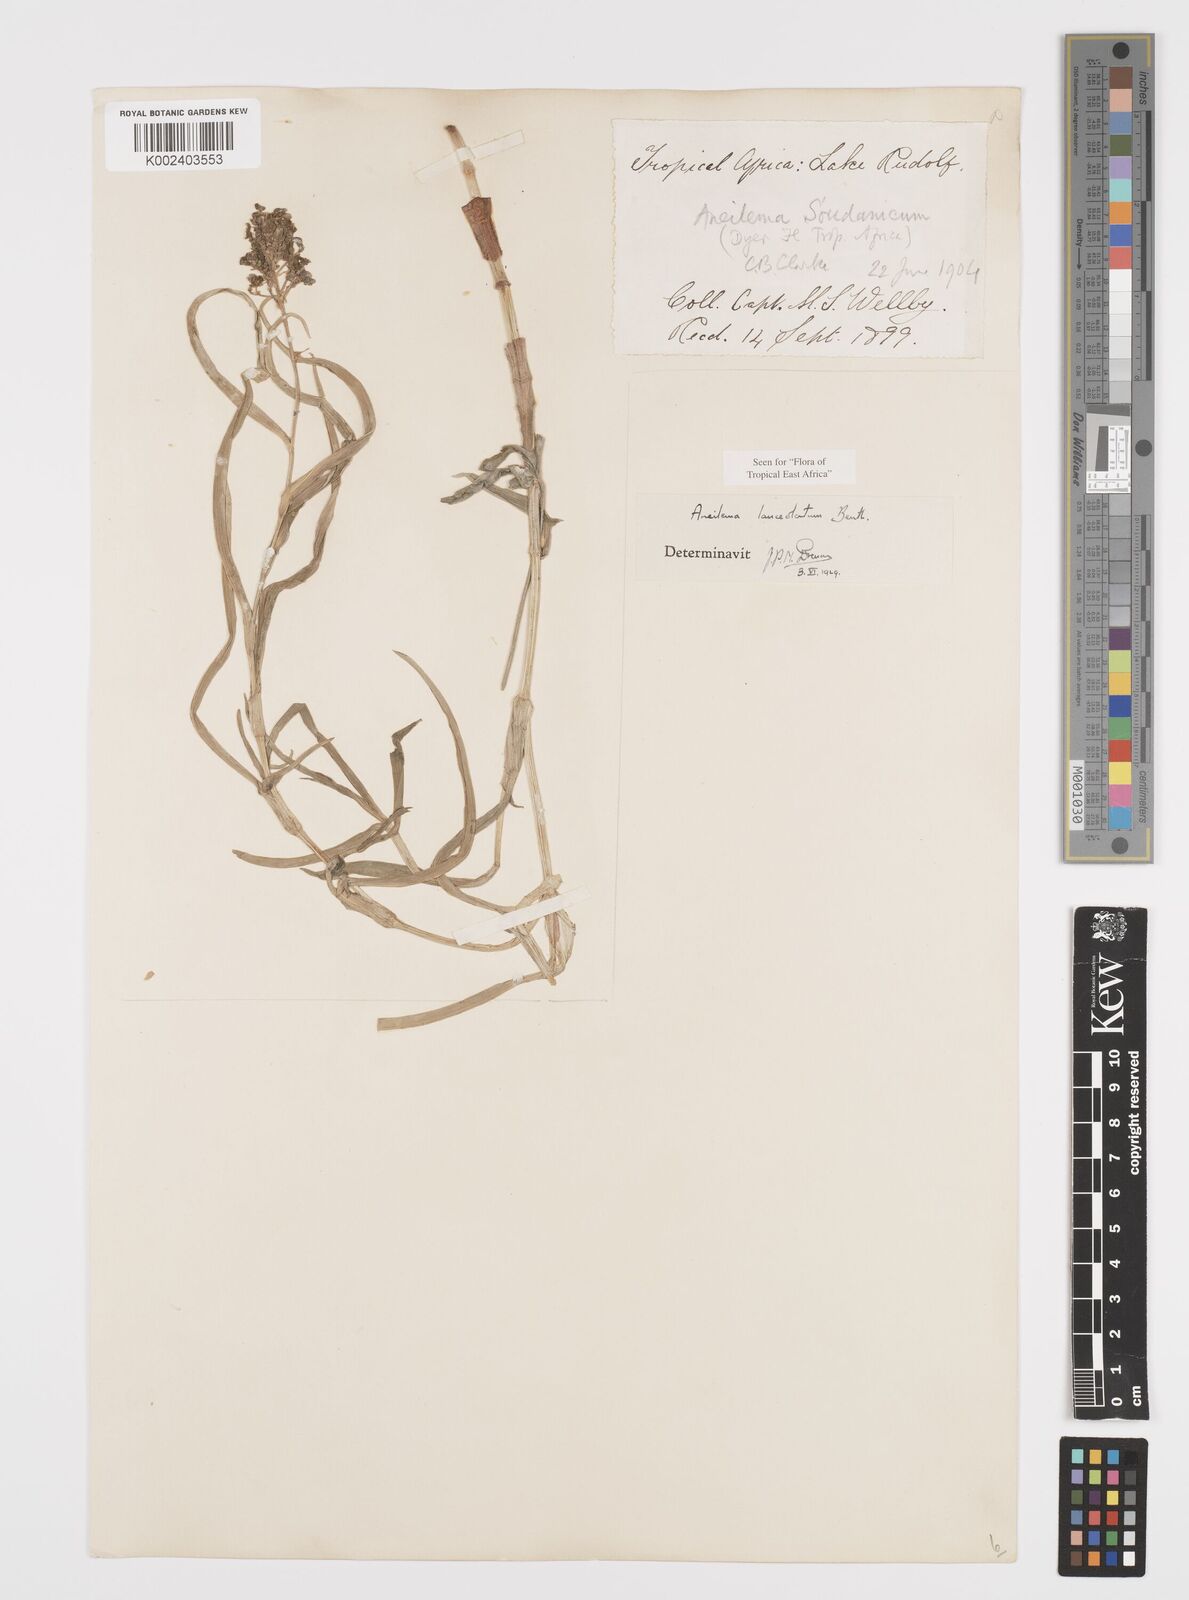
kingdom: Plantae
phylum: Tracheophyta
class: Liliopsida
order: Commelinales
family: Commelinaceae
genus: Aneilema
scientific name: Aneilema lanceolatum
